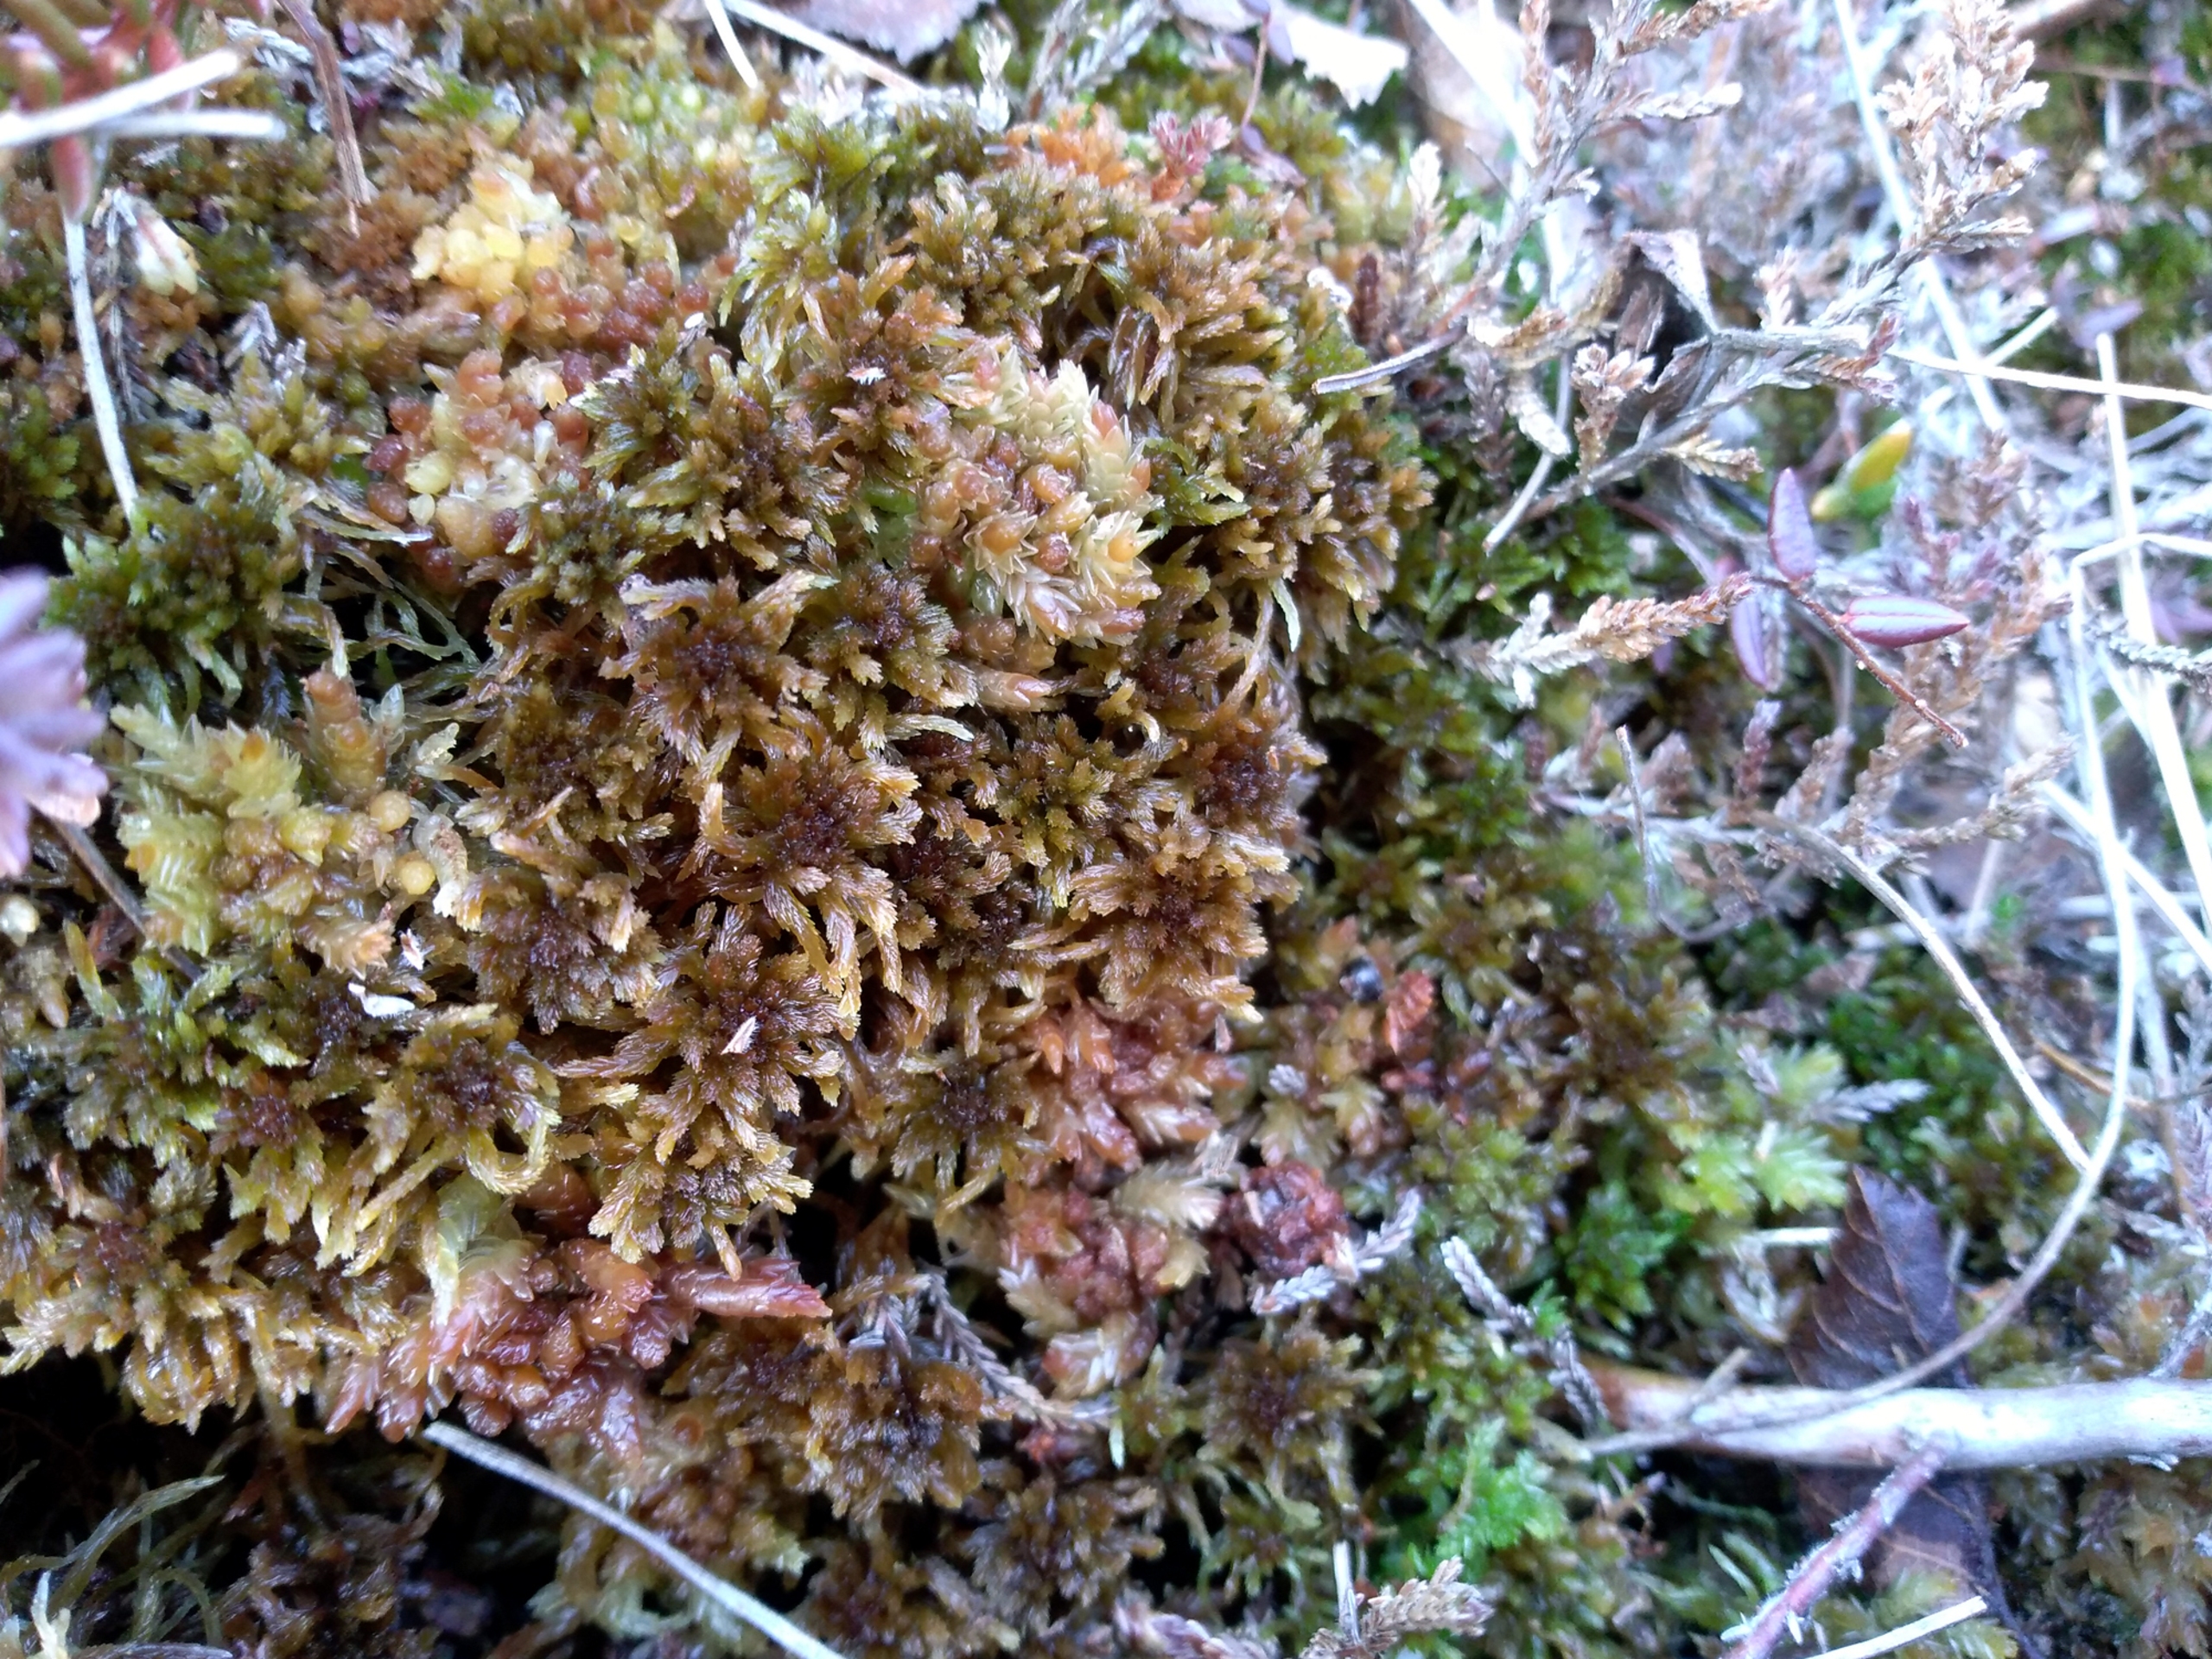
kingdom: Plantae
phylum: Bryophyta
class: Sphagnopsida
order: Sphagnales
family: Sphagnaceae
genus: Sphagnum
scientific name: Sphagnum fuscum
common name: Rustbrun tørvemos
